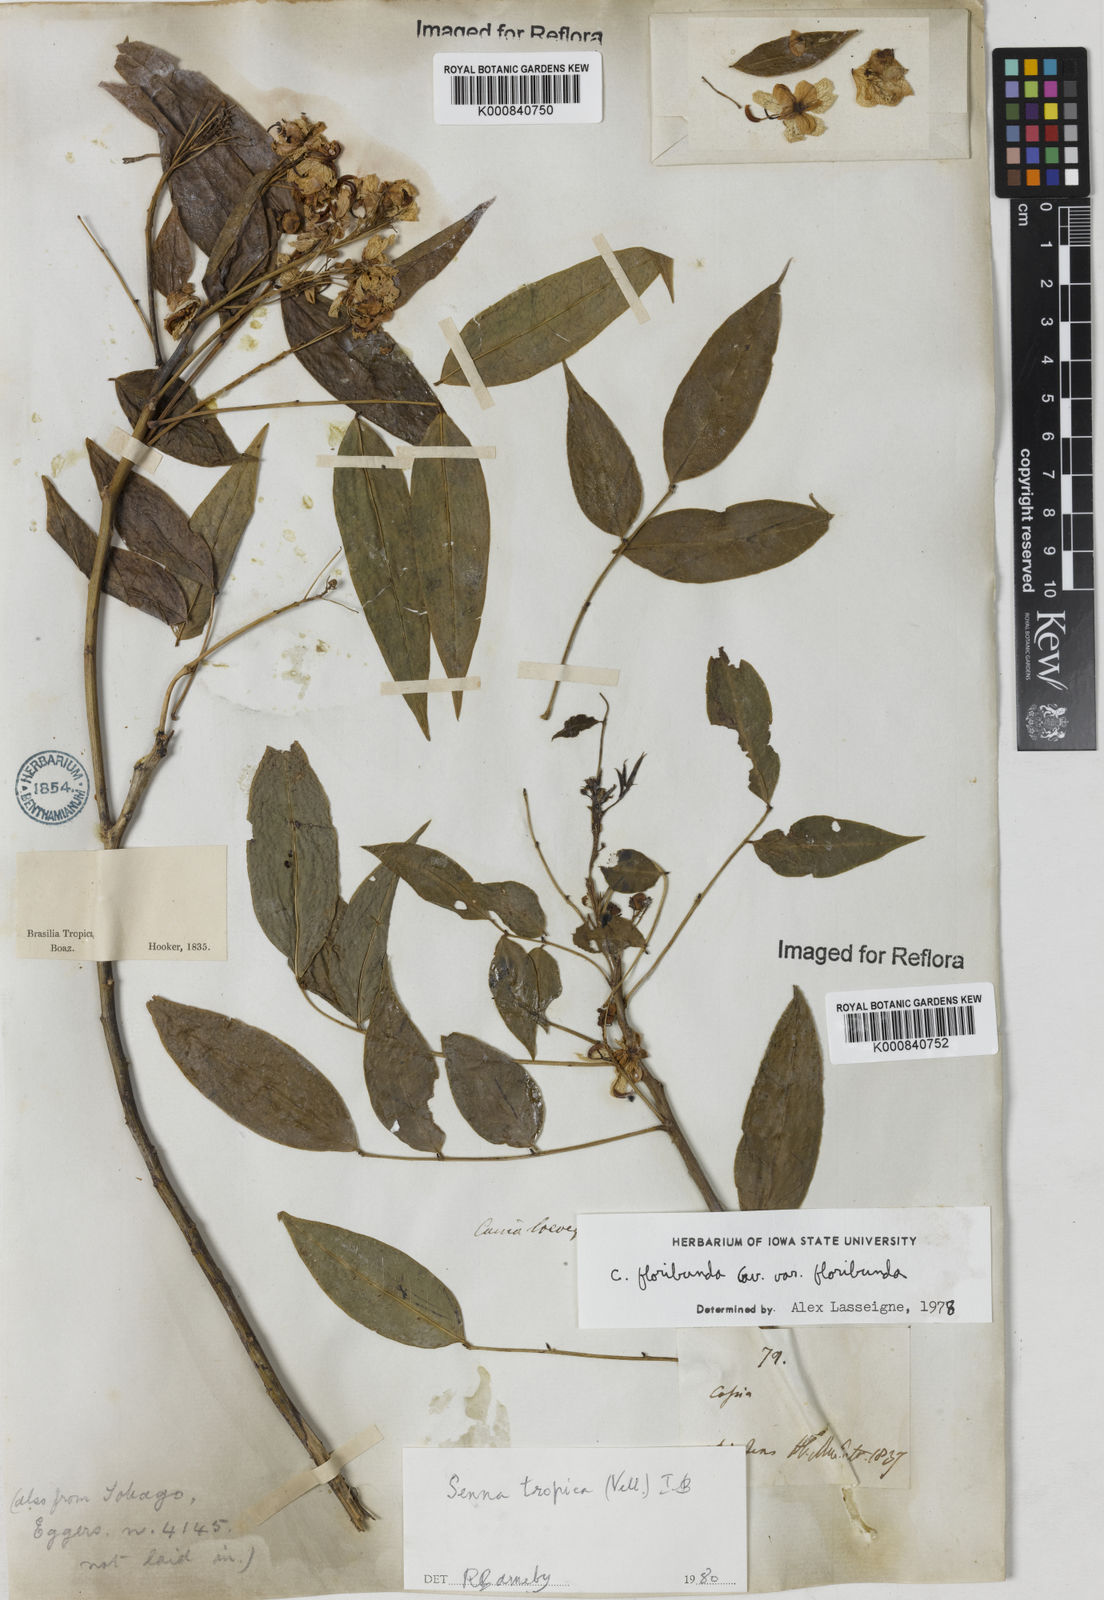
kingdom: Plantae
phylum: Tracheophyta
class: Magnoliopsida
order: Fabales
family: Fabaceae
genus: Senna
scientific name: Senna tropica
